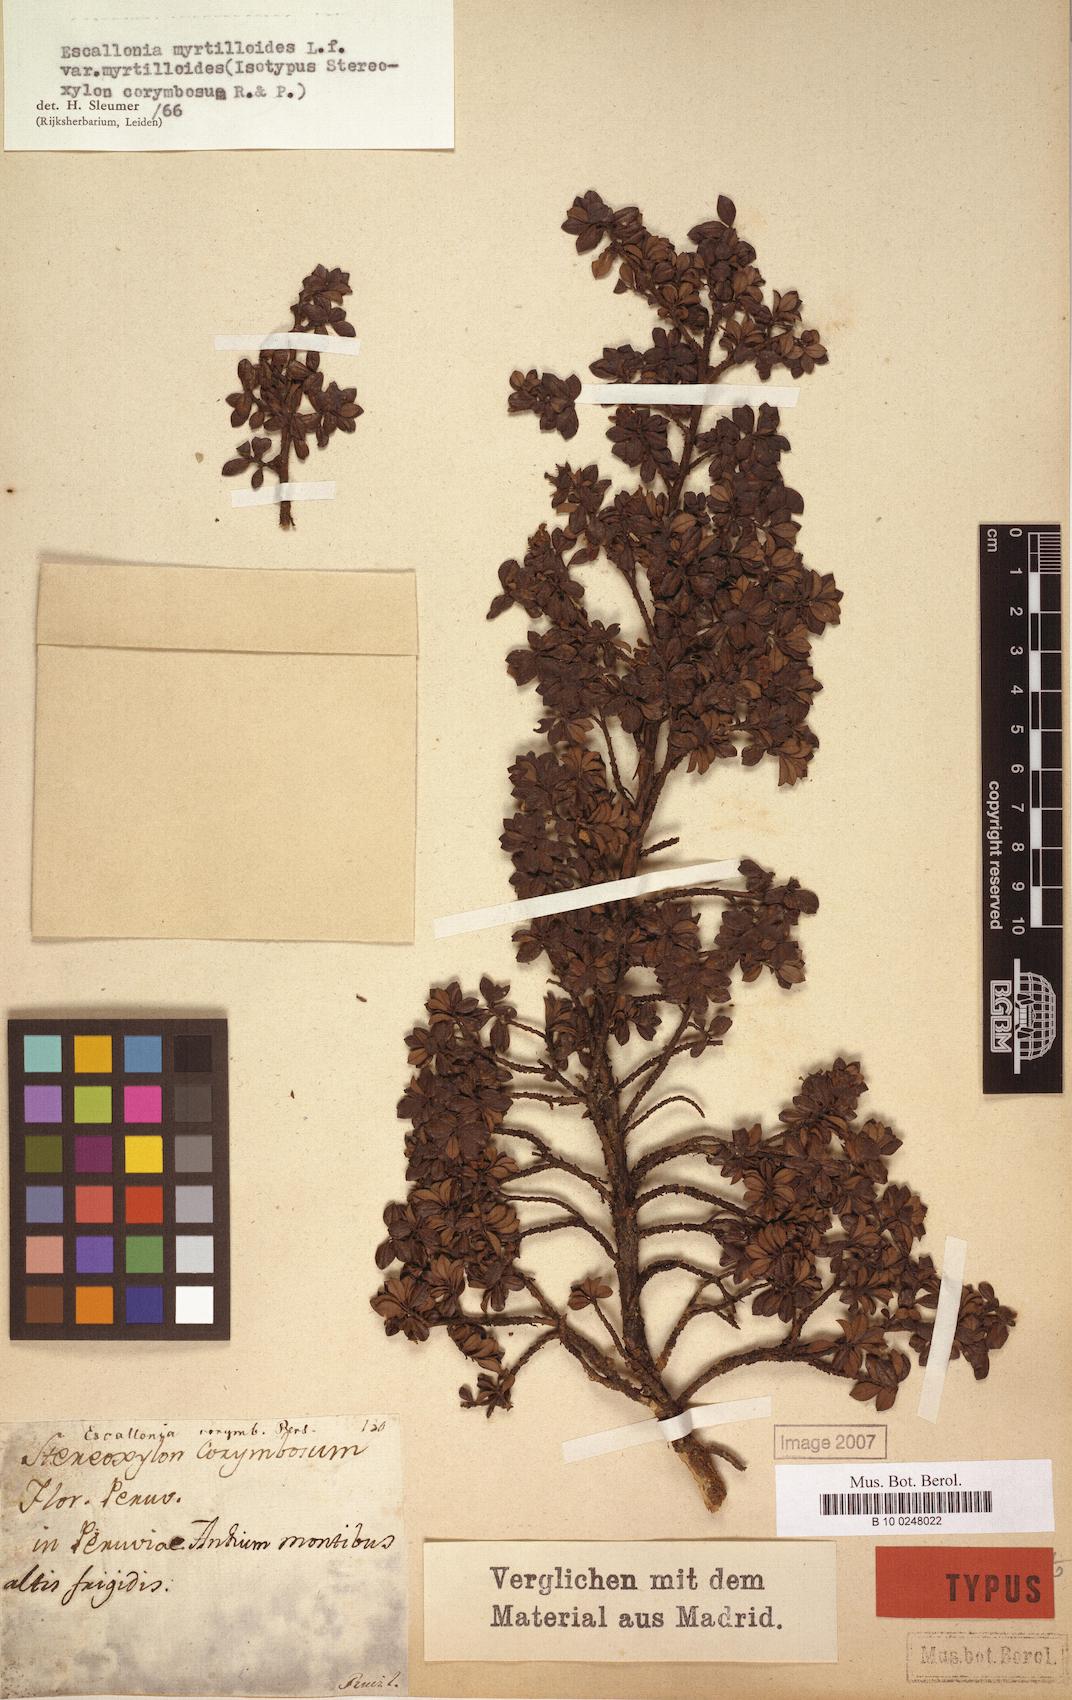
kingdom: Plantae
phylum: Tracheophyta
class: Magnoliopsida
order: Escalloniales
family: Escalloniaceae
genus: Escallonia
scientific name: Escallonia myrtilloides
